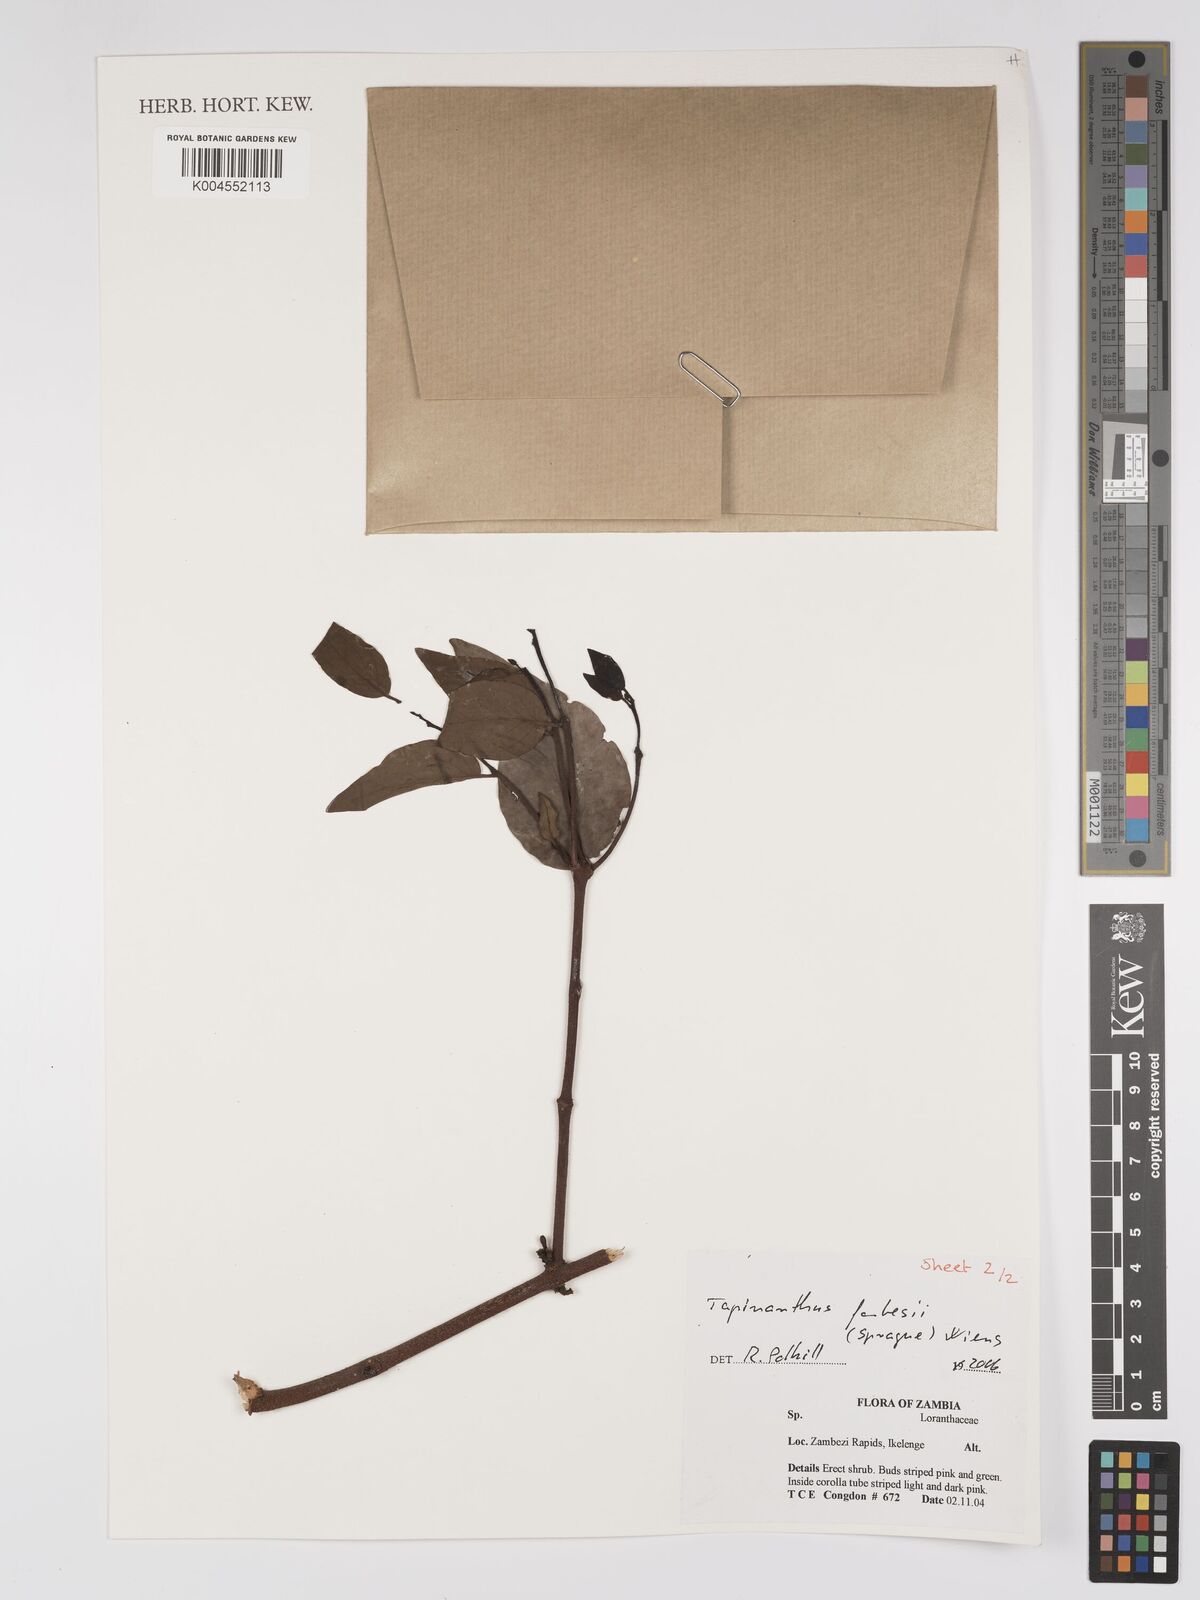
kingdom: Plantae
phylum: Tracheophyta
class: Magnoliopsida
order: Santalales
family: Loranthaceae
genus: Tapinanthus
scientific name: Tapinanthus forbesii
